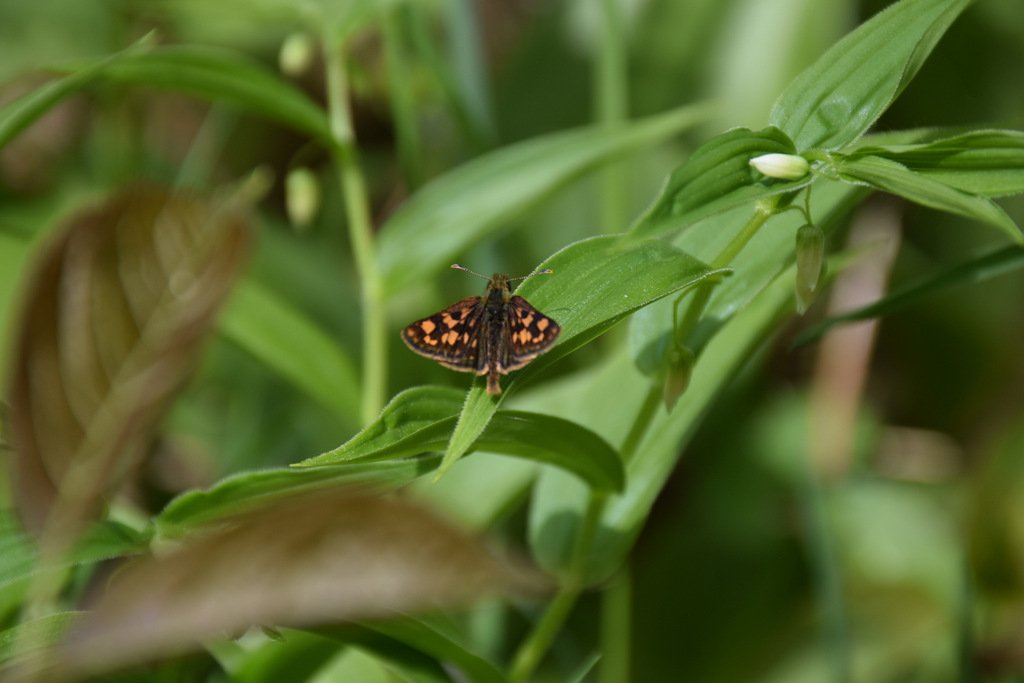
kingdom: Animalia
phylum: Arthropoda
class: Insecta
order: Lepidoptera
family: Hesperiidae
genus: Carterocephalus
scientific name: Carterocephalus palaemon
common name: Chequered Skipper
